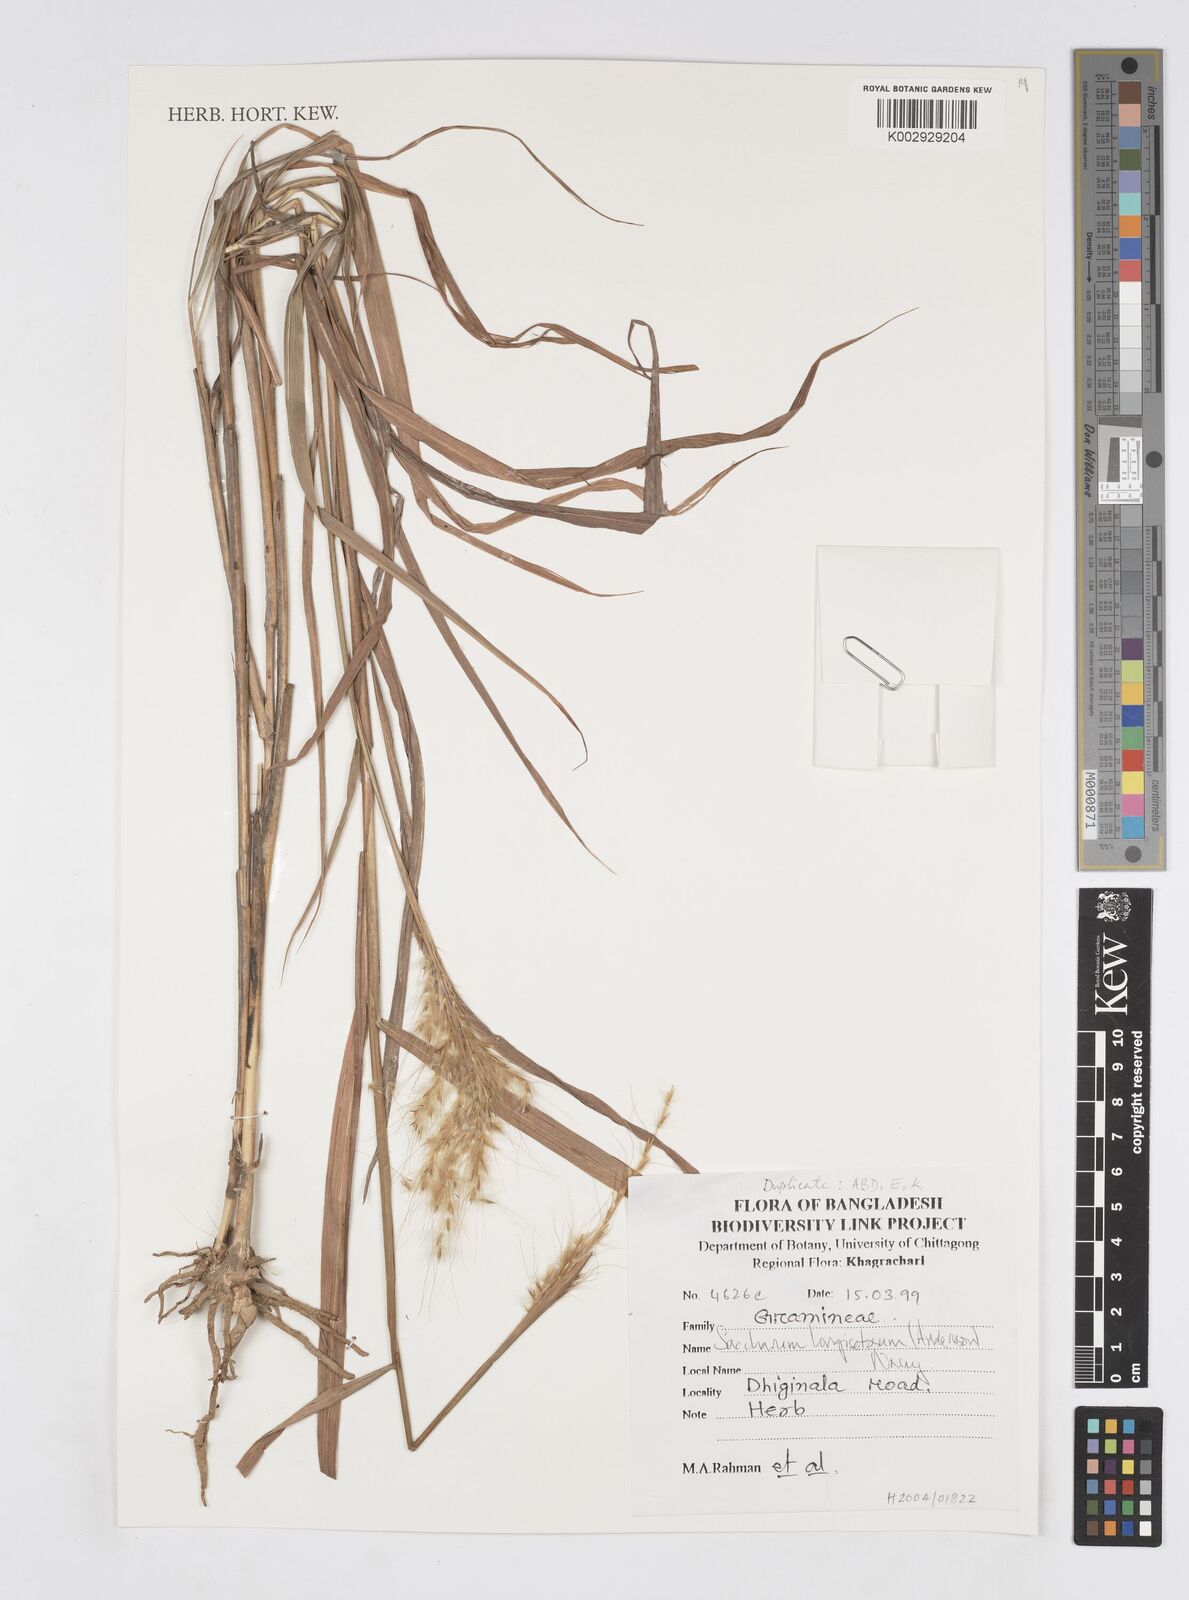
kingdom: Plantae
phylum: Tracheophyta
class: Liliopsida
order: Poales
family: Poaceae
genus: Melinis
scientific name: Melinis longiseta
